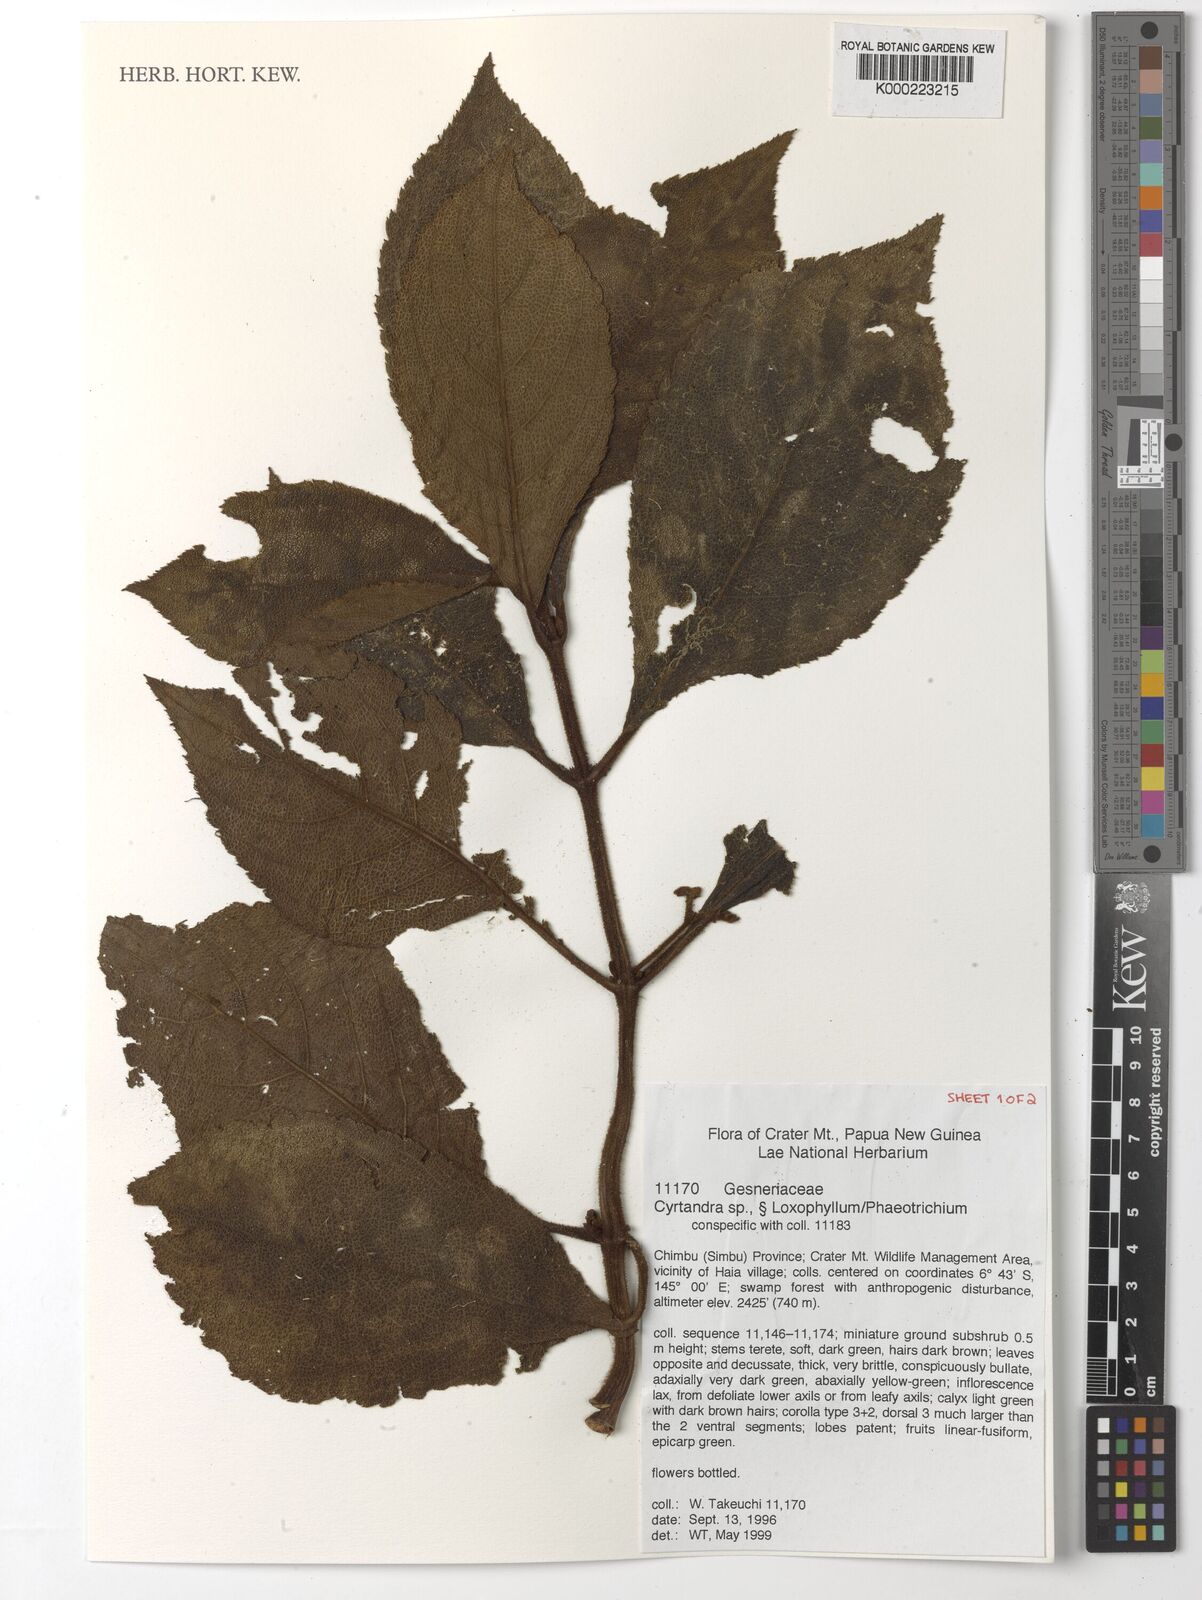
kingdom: Plantae
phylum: Tracheophyta
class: Magnoliopsida
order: Lamiales
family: Gesneriaceae
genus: Cyrtandra
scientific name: Cyrtandra
